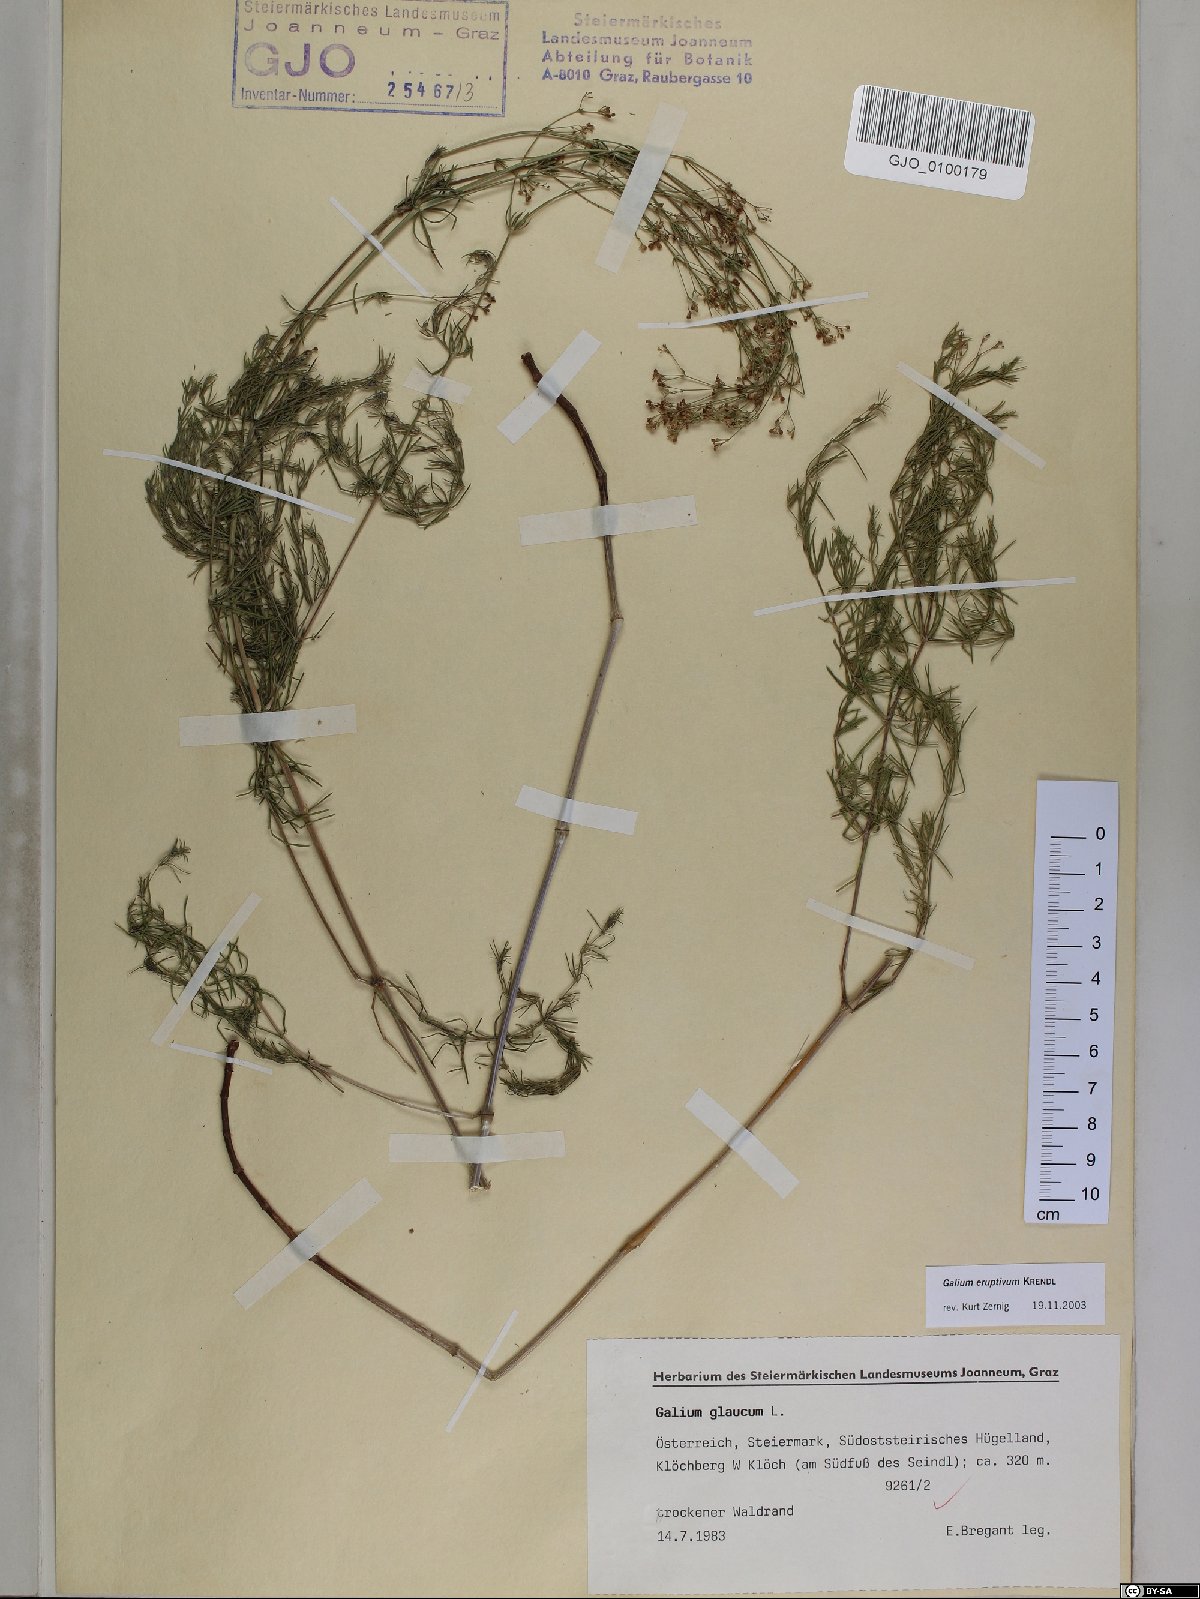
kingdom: Plantae
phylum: Tracheophyta
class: Magnoliopsida
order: Gentianales
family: Rubiaceae
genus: Galium
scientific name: Galium eruptivum
